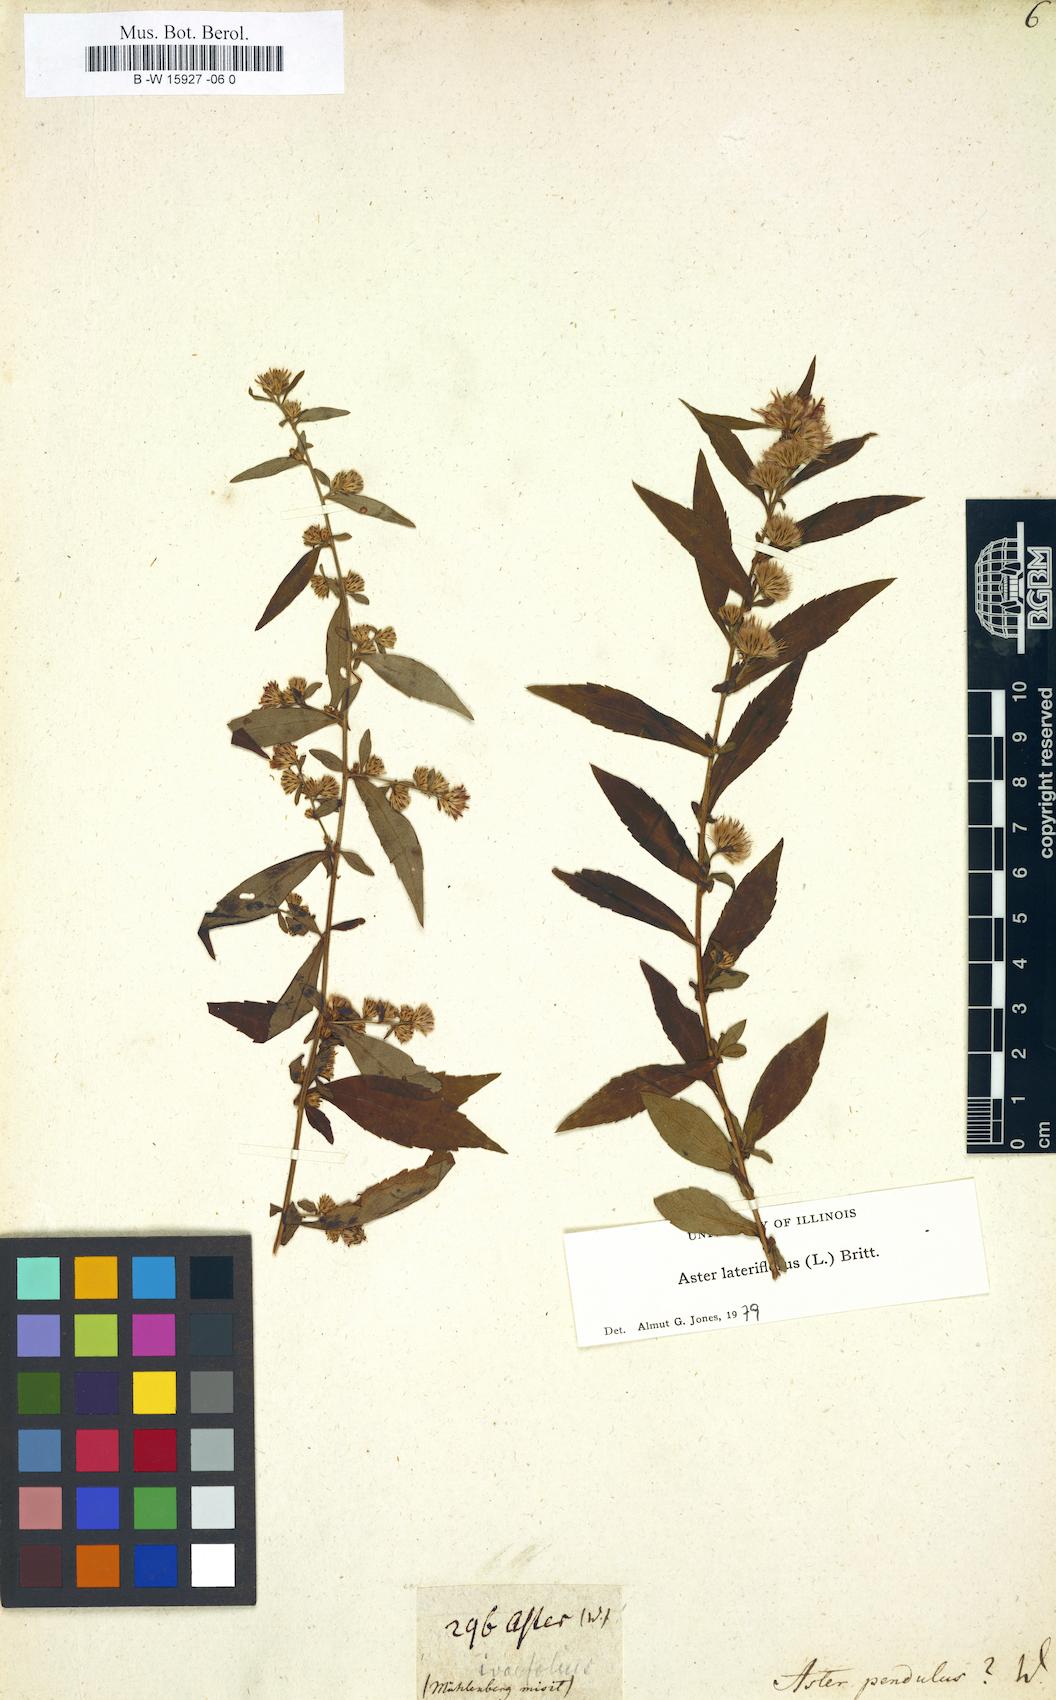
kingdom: Plantae
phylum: Tracheophyta
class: Magnoliopsida
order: Asterales
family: Asteraceae
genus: Aster
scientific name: Aster pendulus
